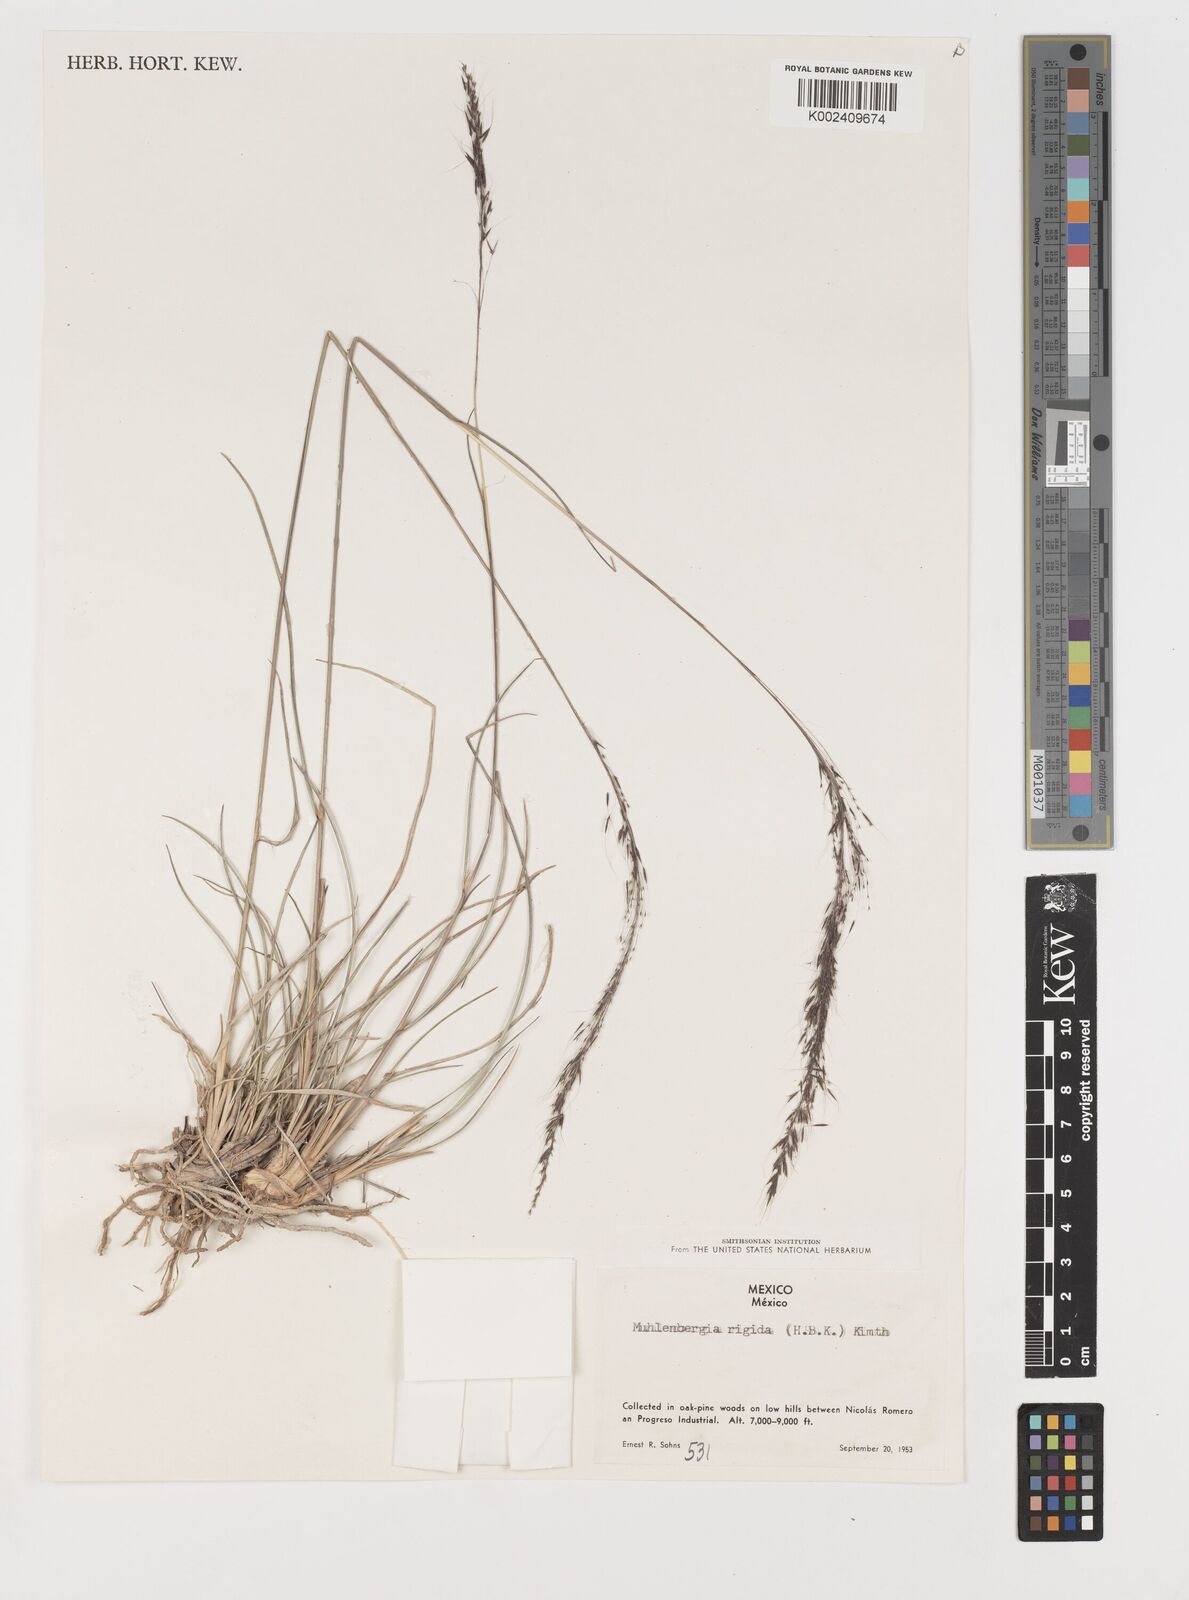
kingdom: Plantae
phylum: Tracheophyta
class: Liliopsida
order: Poales
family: Poaceae
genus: Muhlenbergia
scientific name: Muhlenbergia rigida
